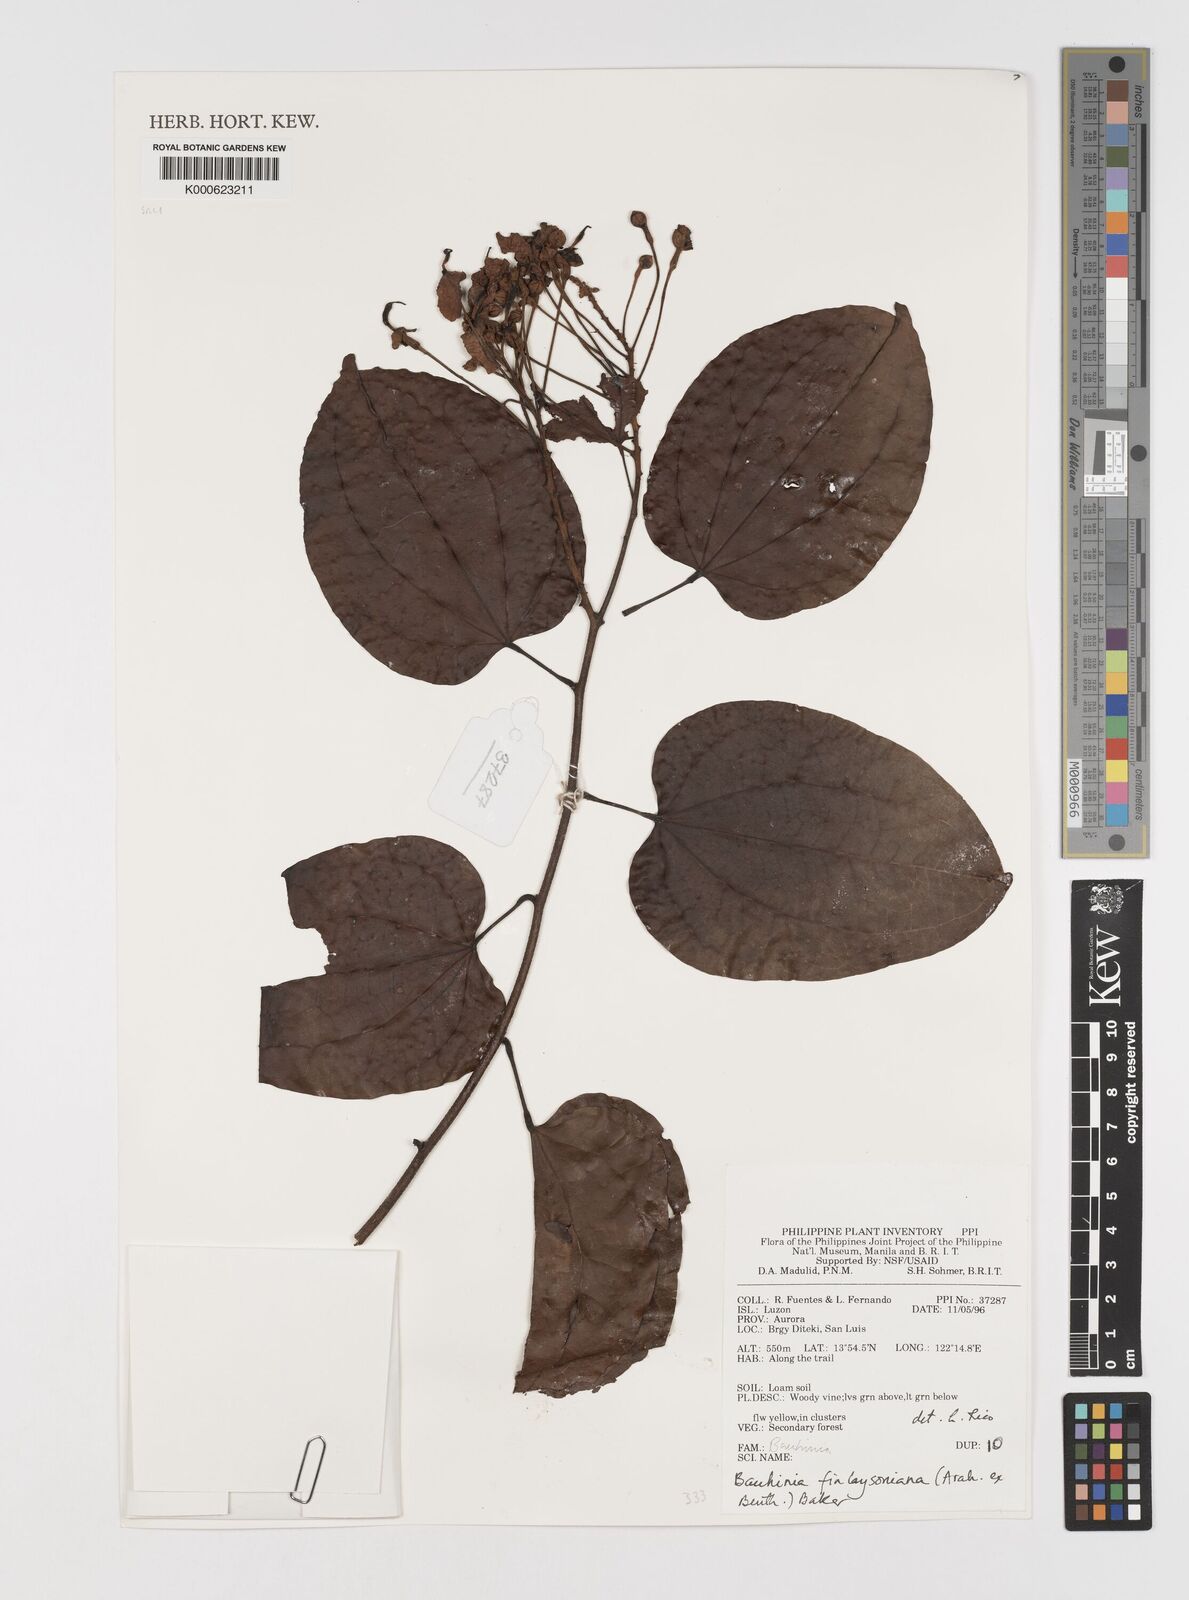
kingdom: Plantae
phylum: Tracheophyta
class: Magnoliopsida
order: Fabales
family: Fabaceae
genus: Phanera
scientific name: Phanera finlaysoniana
